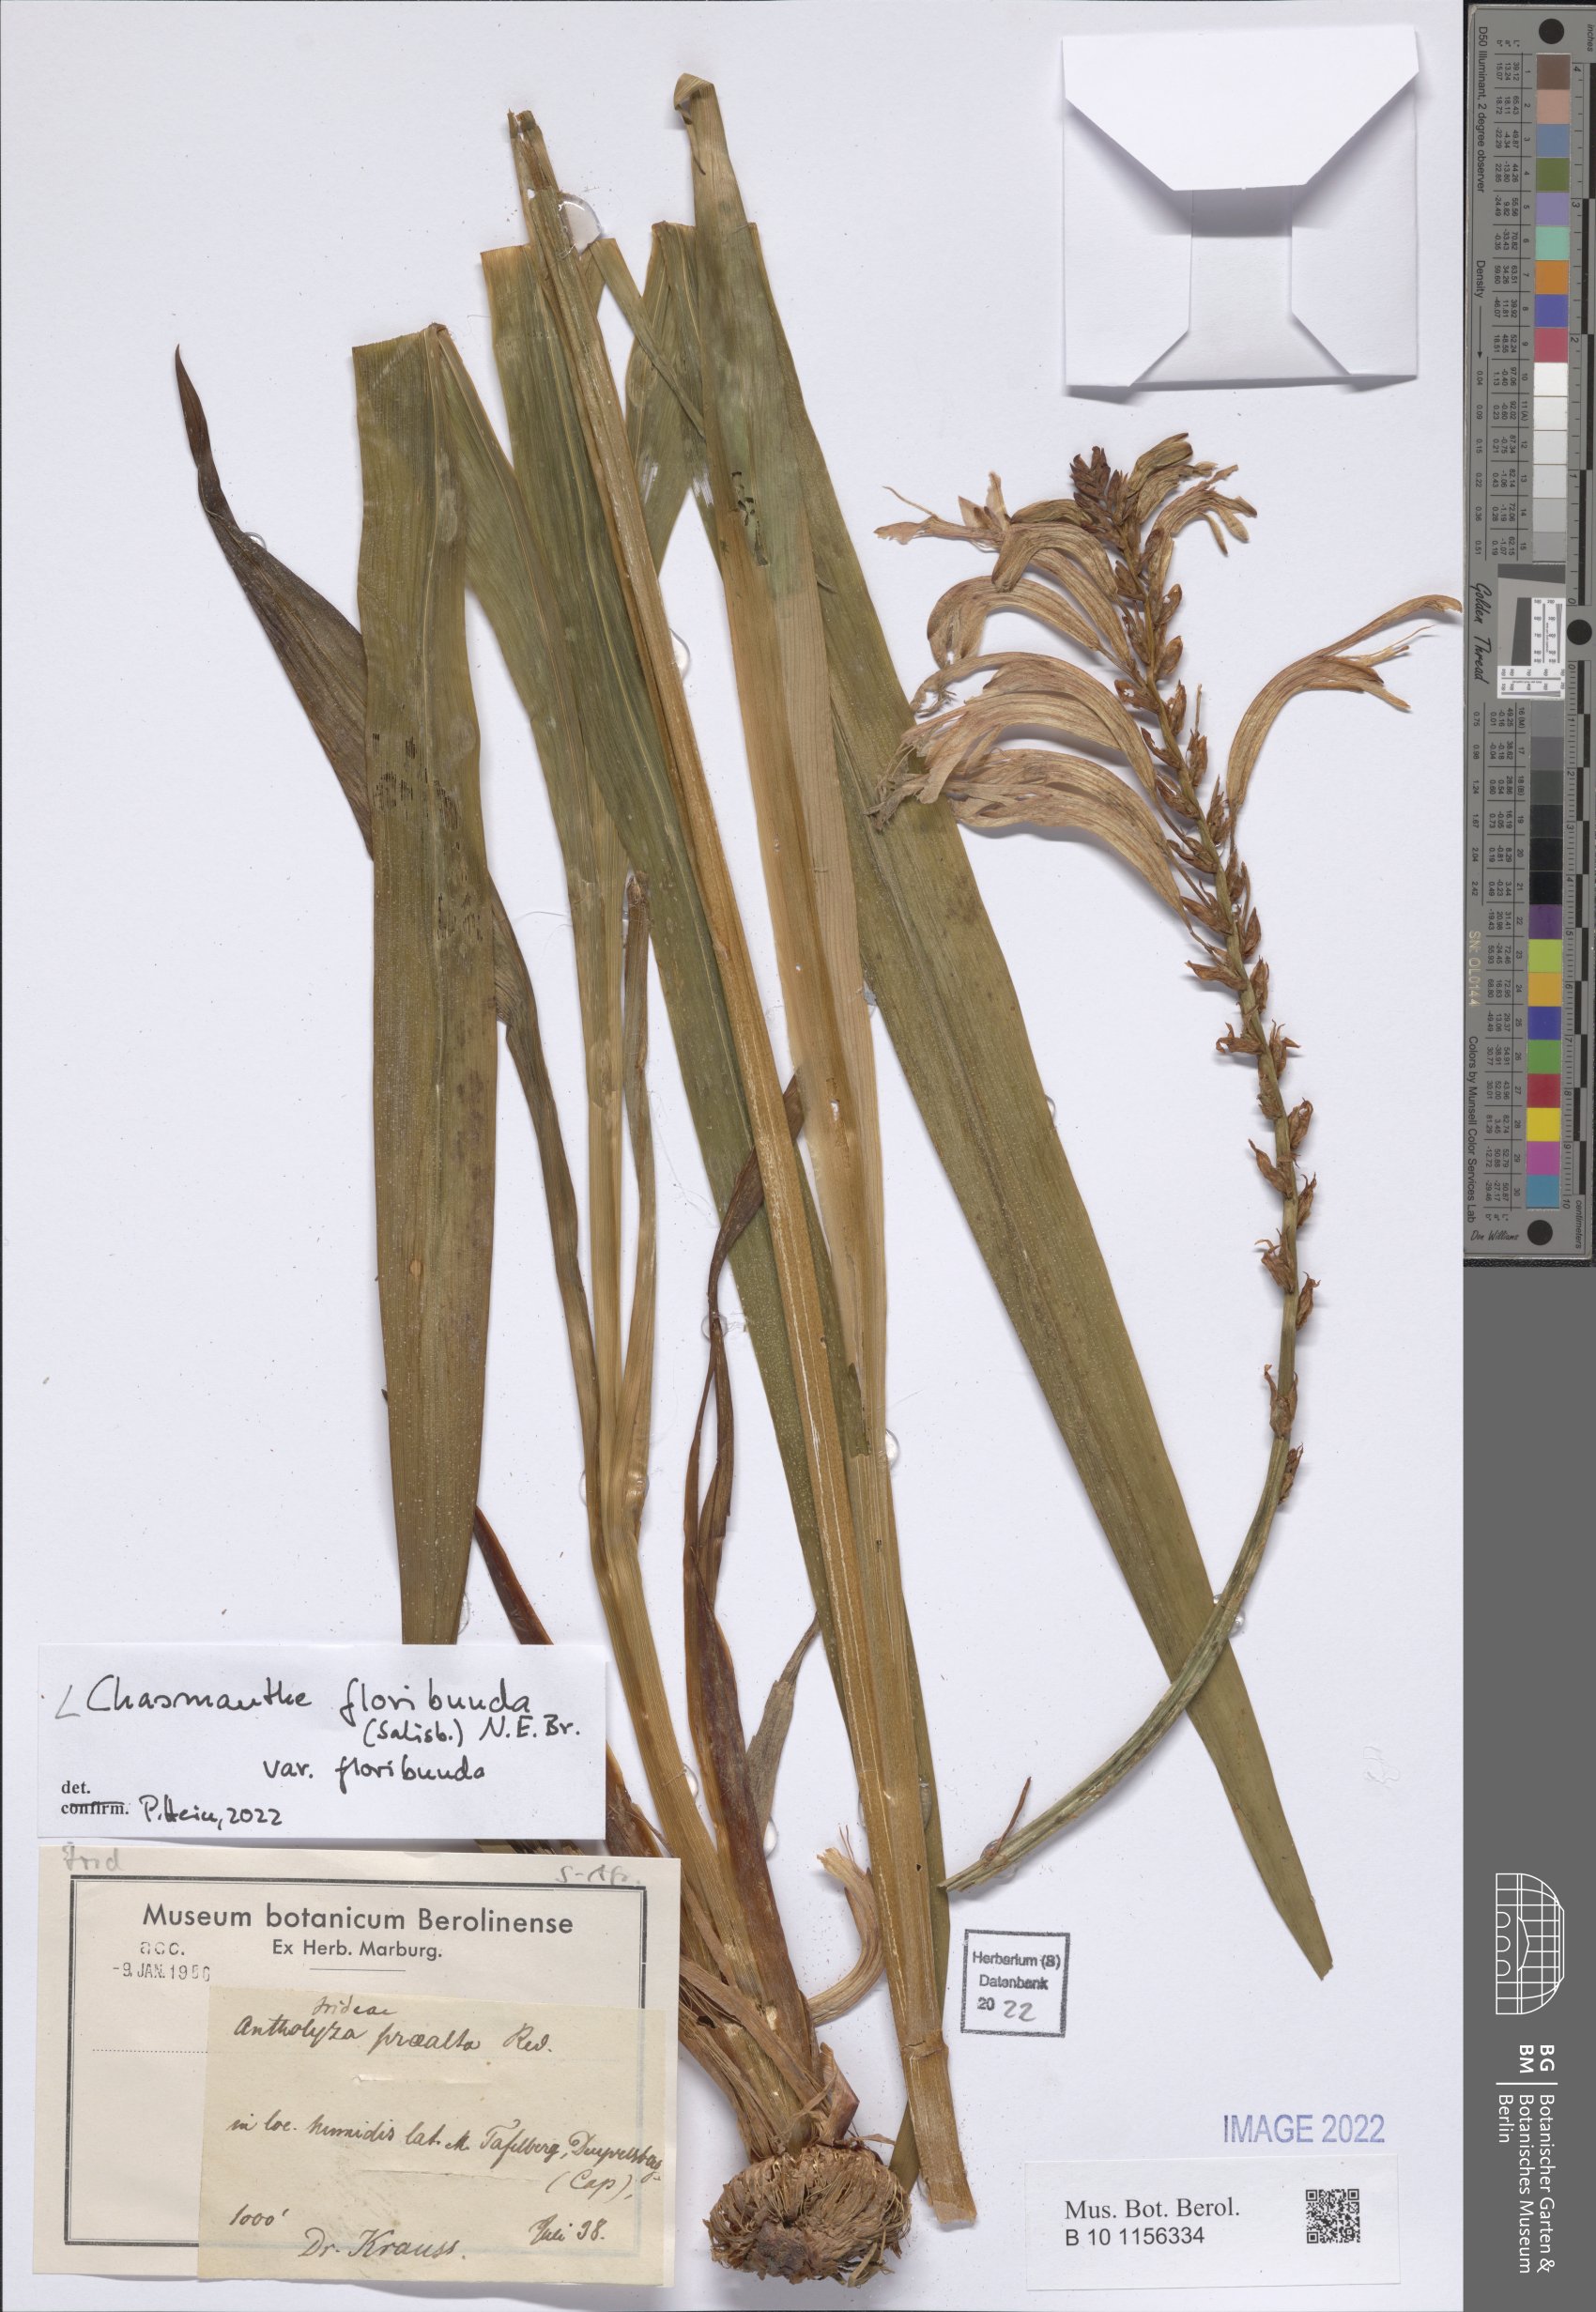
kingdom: Plantae
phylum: Tracheophyta
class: Liliopsida
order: Asparagales
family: Iridaceae
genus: Chasmanthe
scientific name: Chasmanthe floribunda
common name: African cornflag
